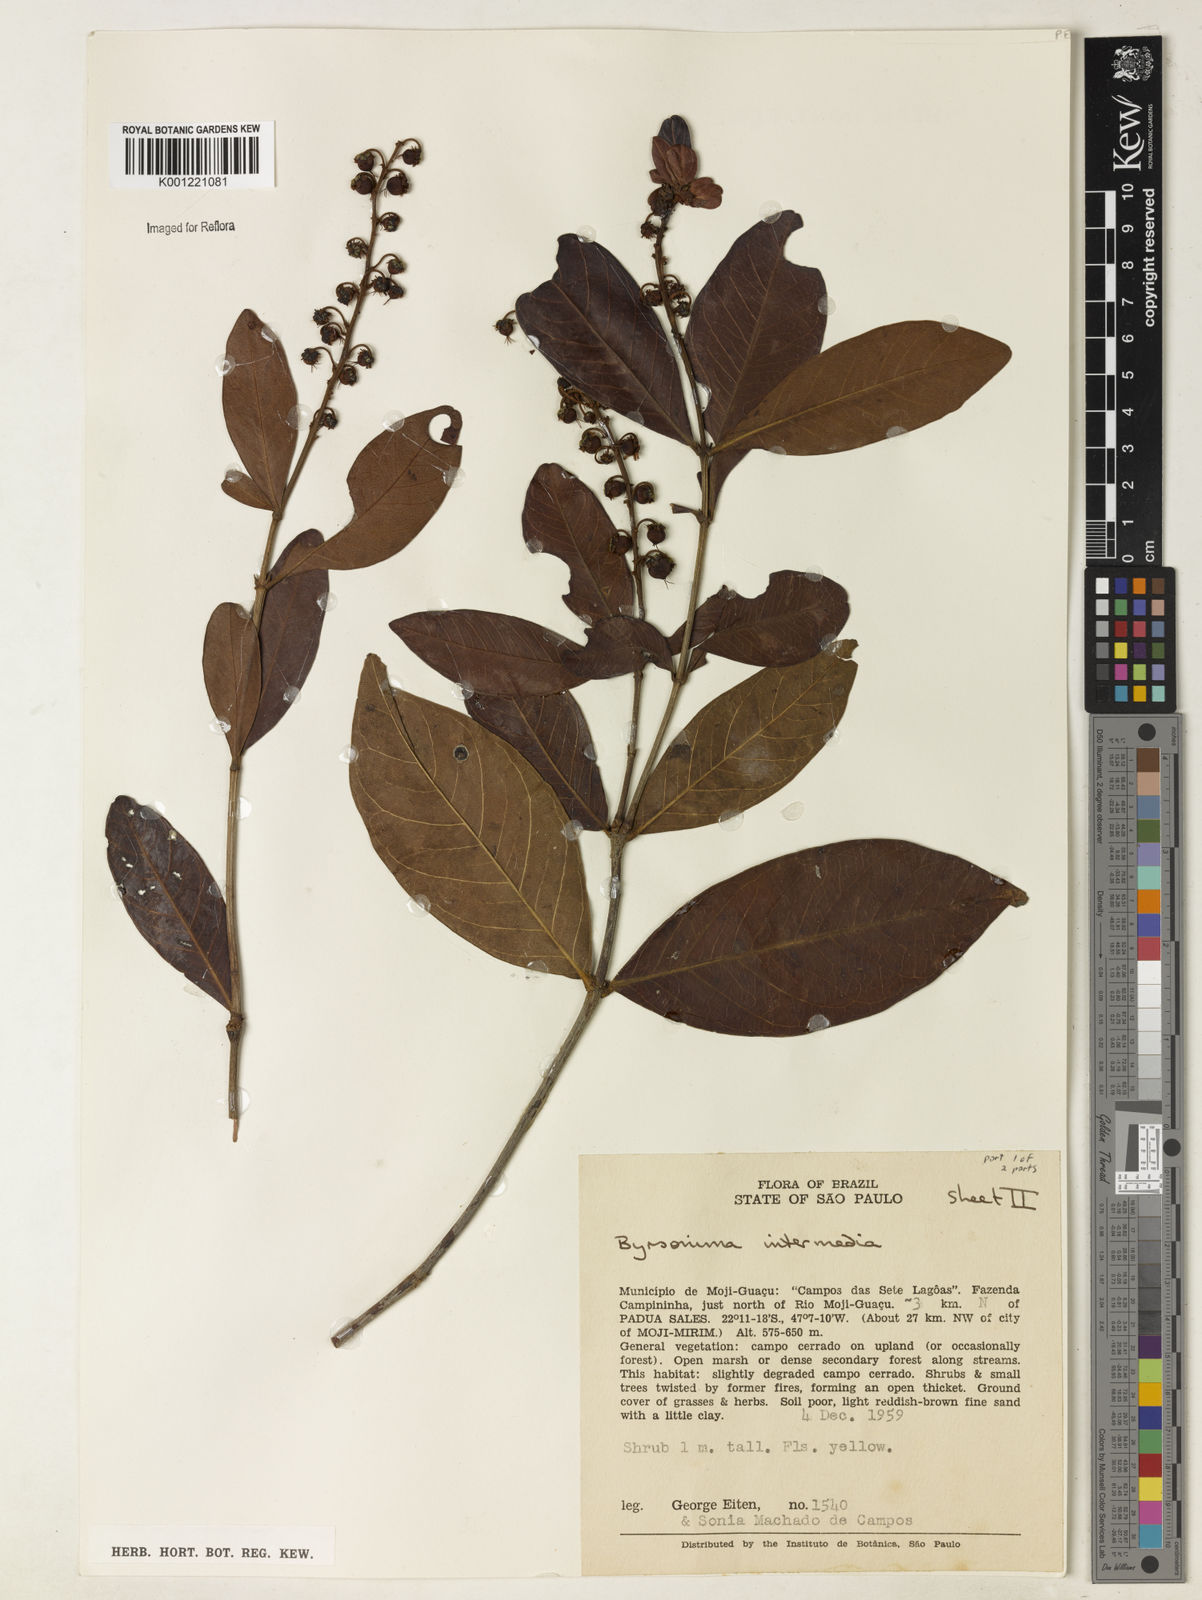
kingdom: Plantae
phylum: Tracheophyta
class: Magnoliopsida
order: Malpighiales
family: Malpighiaceae
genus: Byrsonima
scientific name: Byrsonima intermedia
